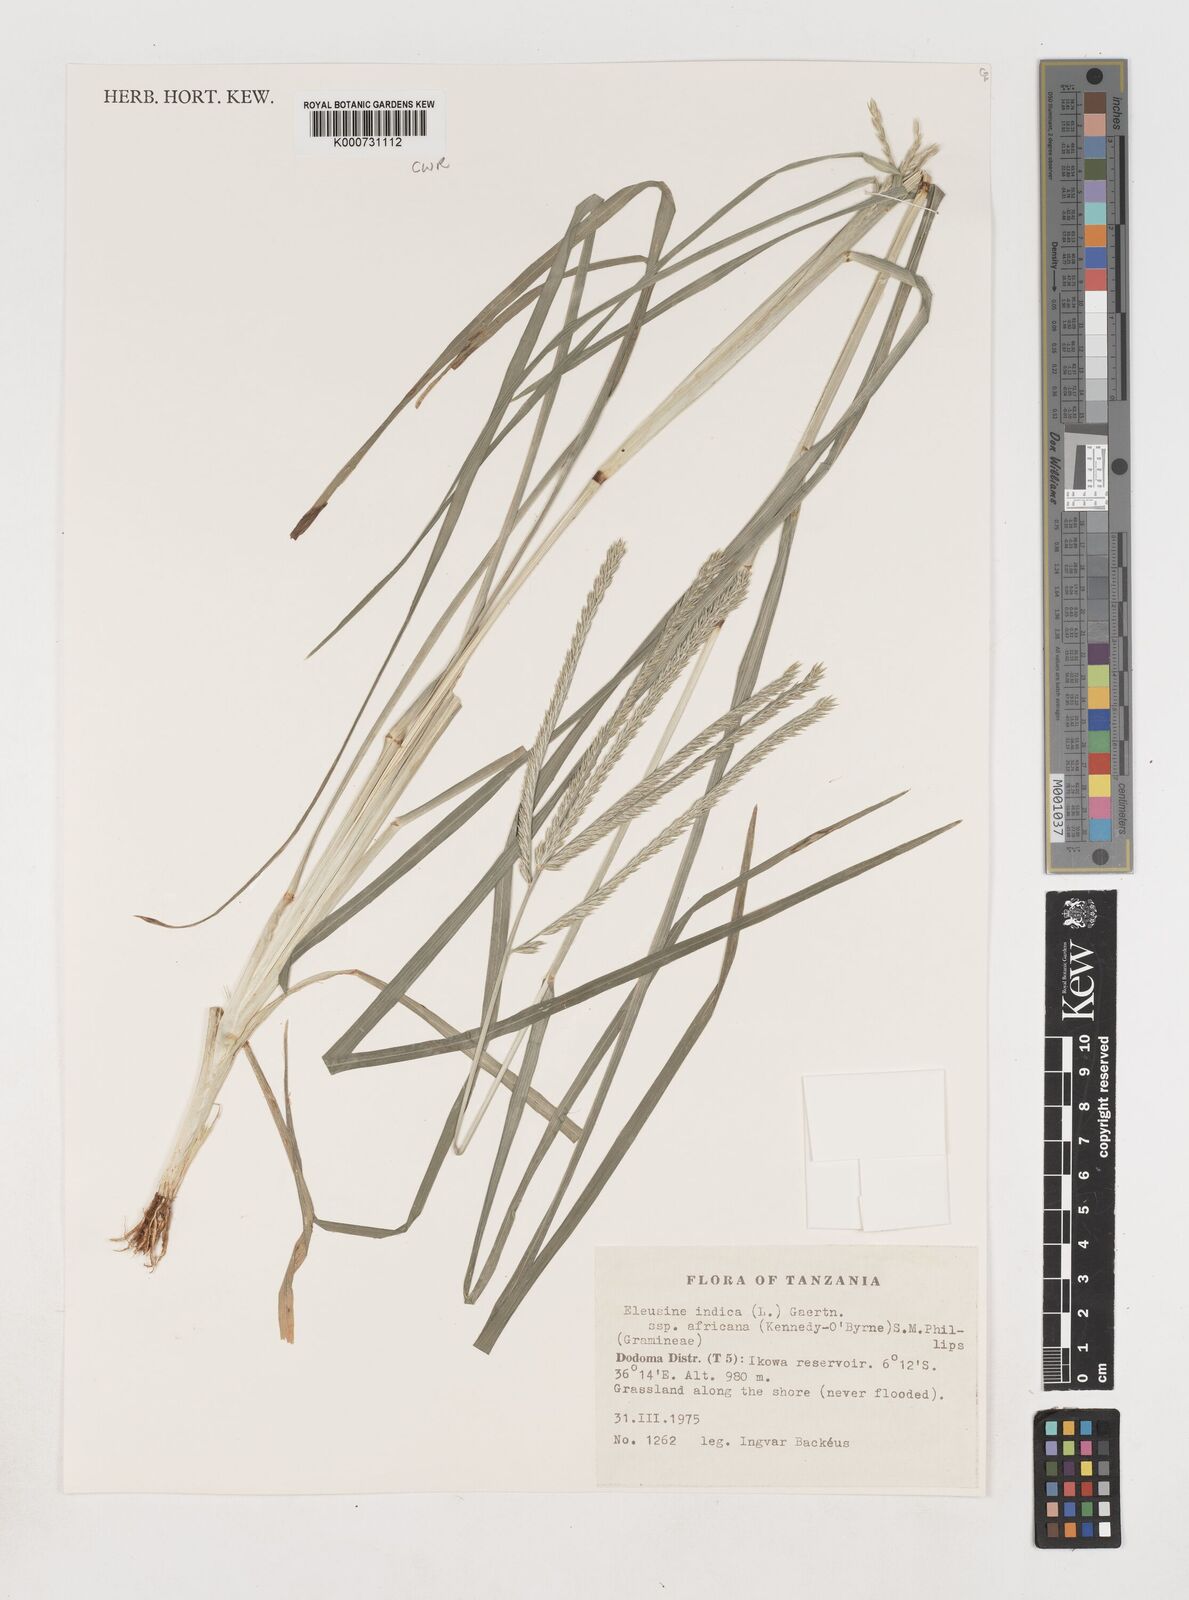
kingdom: Plantae
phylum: Tracheophyta
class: Liliopsida
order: Poales
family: Poaceae
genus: Eleusine
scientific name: Eleusine africana
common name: Wild african finger millet
